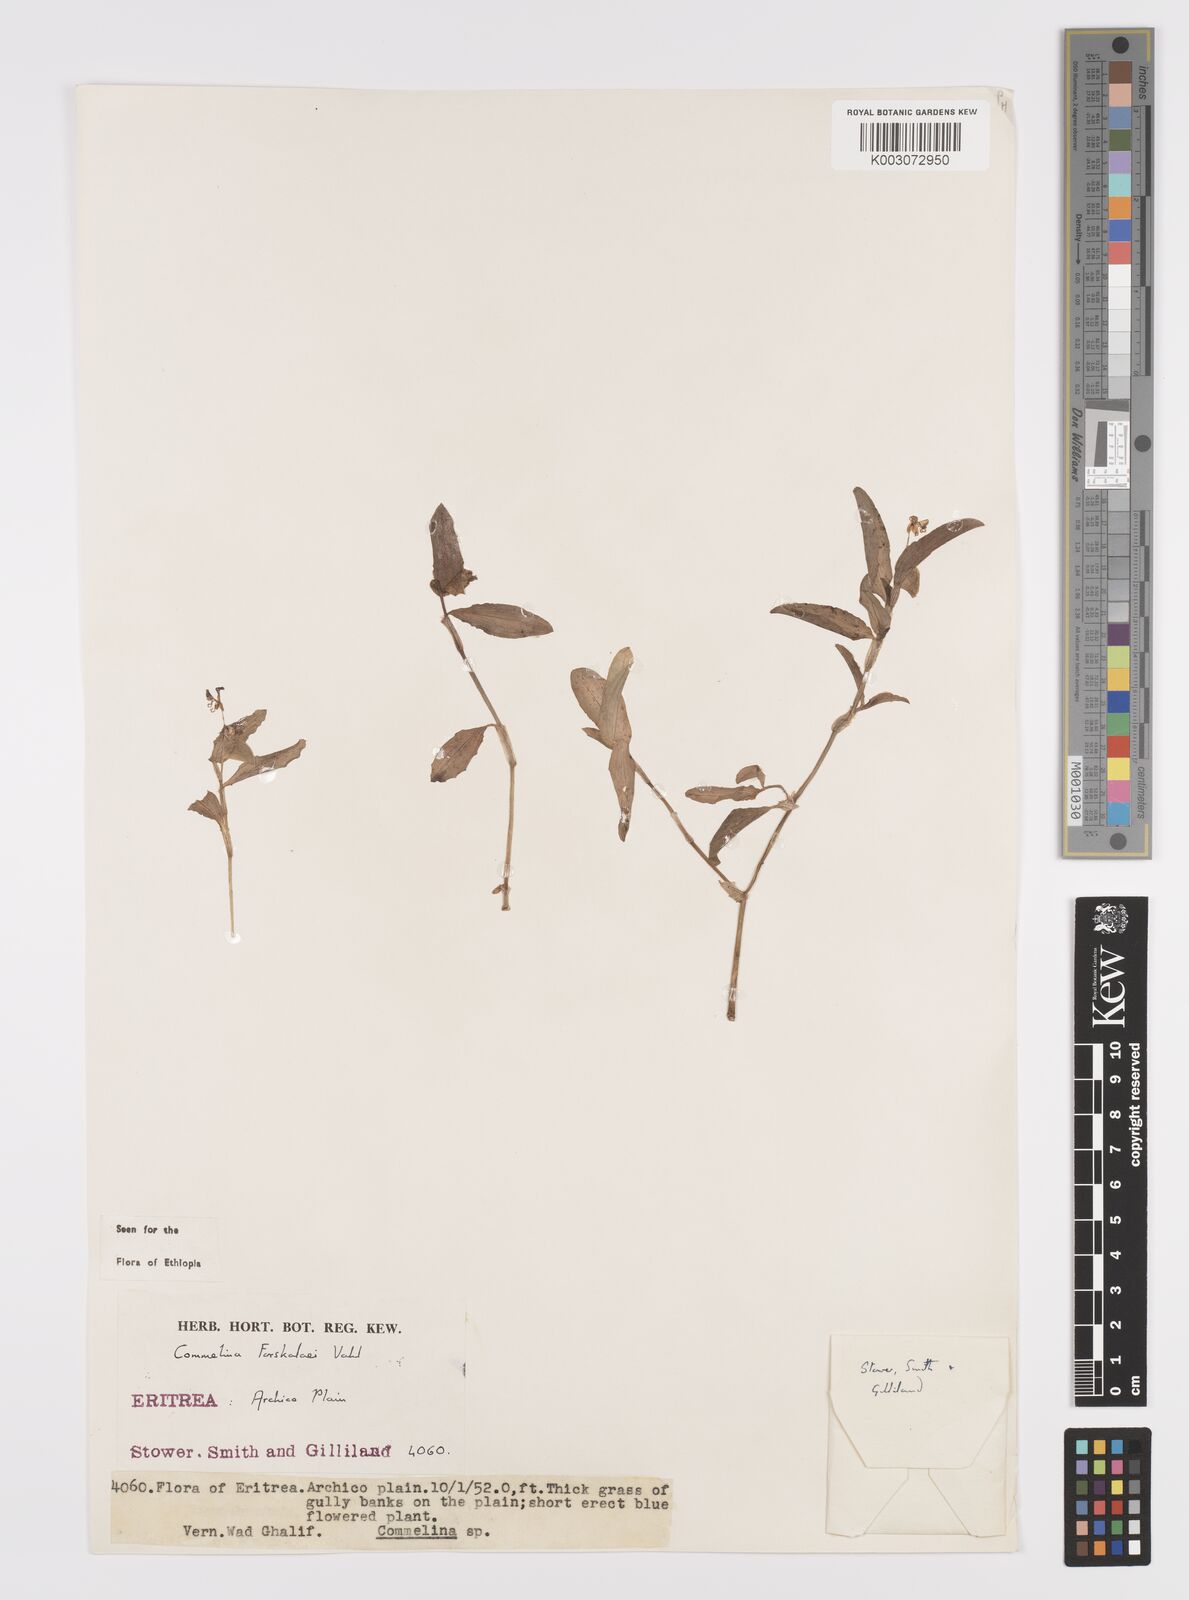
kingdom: Plantae
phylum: Tracheophyta
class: Liliopsida
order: Commelinales
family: Commelinaceae
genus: Commelina
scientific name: Commelina forskaolii
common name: Rat's ear
